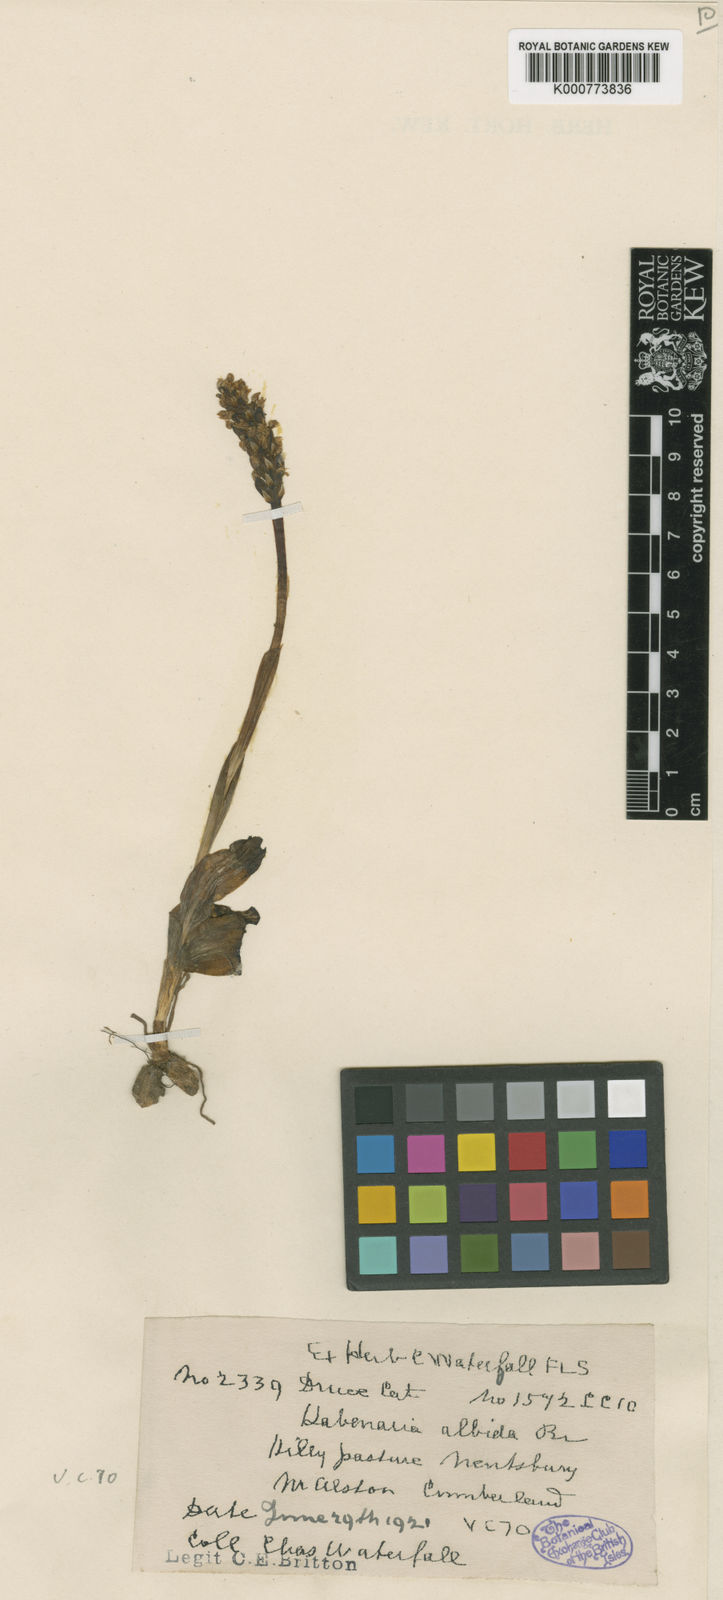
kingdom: Plantae
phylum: Tracheophyta
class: Liliopsida
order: Asparagales
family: Orchidaceae
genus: Pseudorchis
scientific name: Pseudorchis
